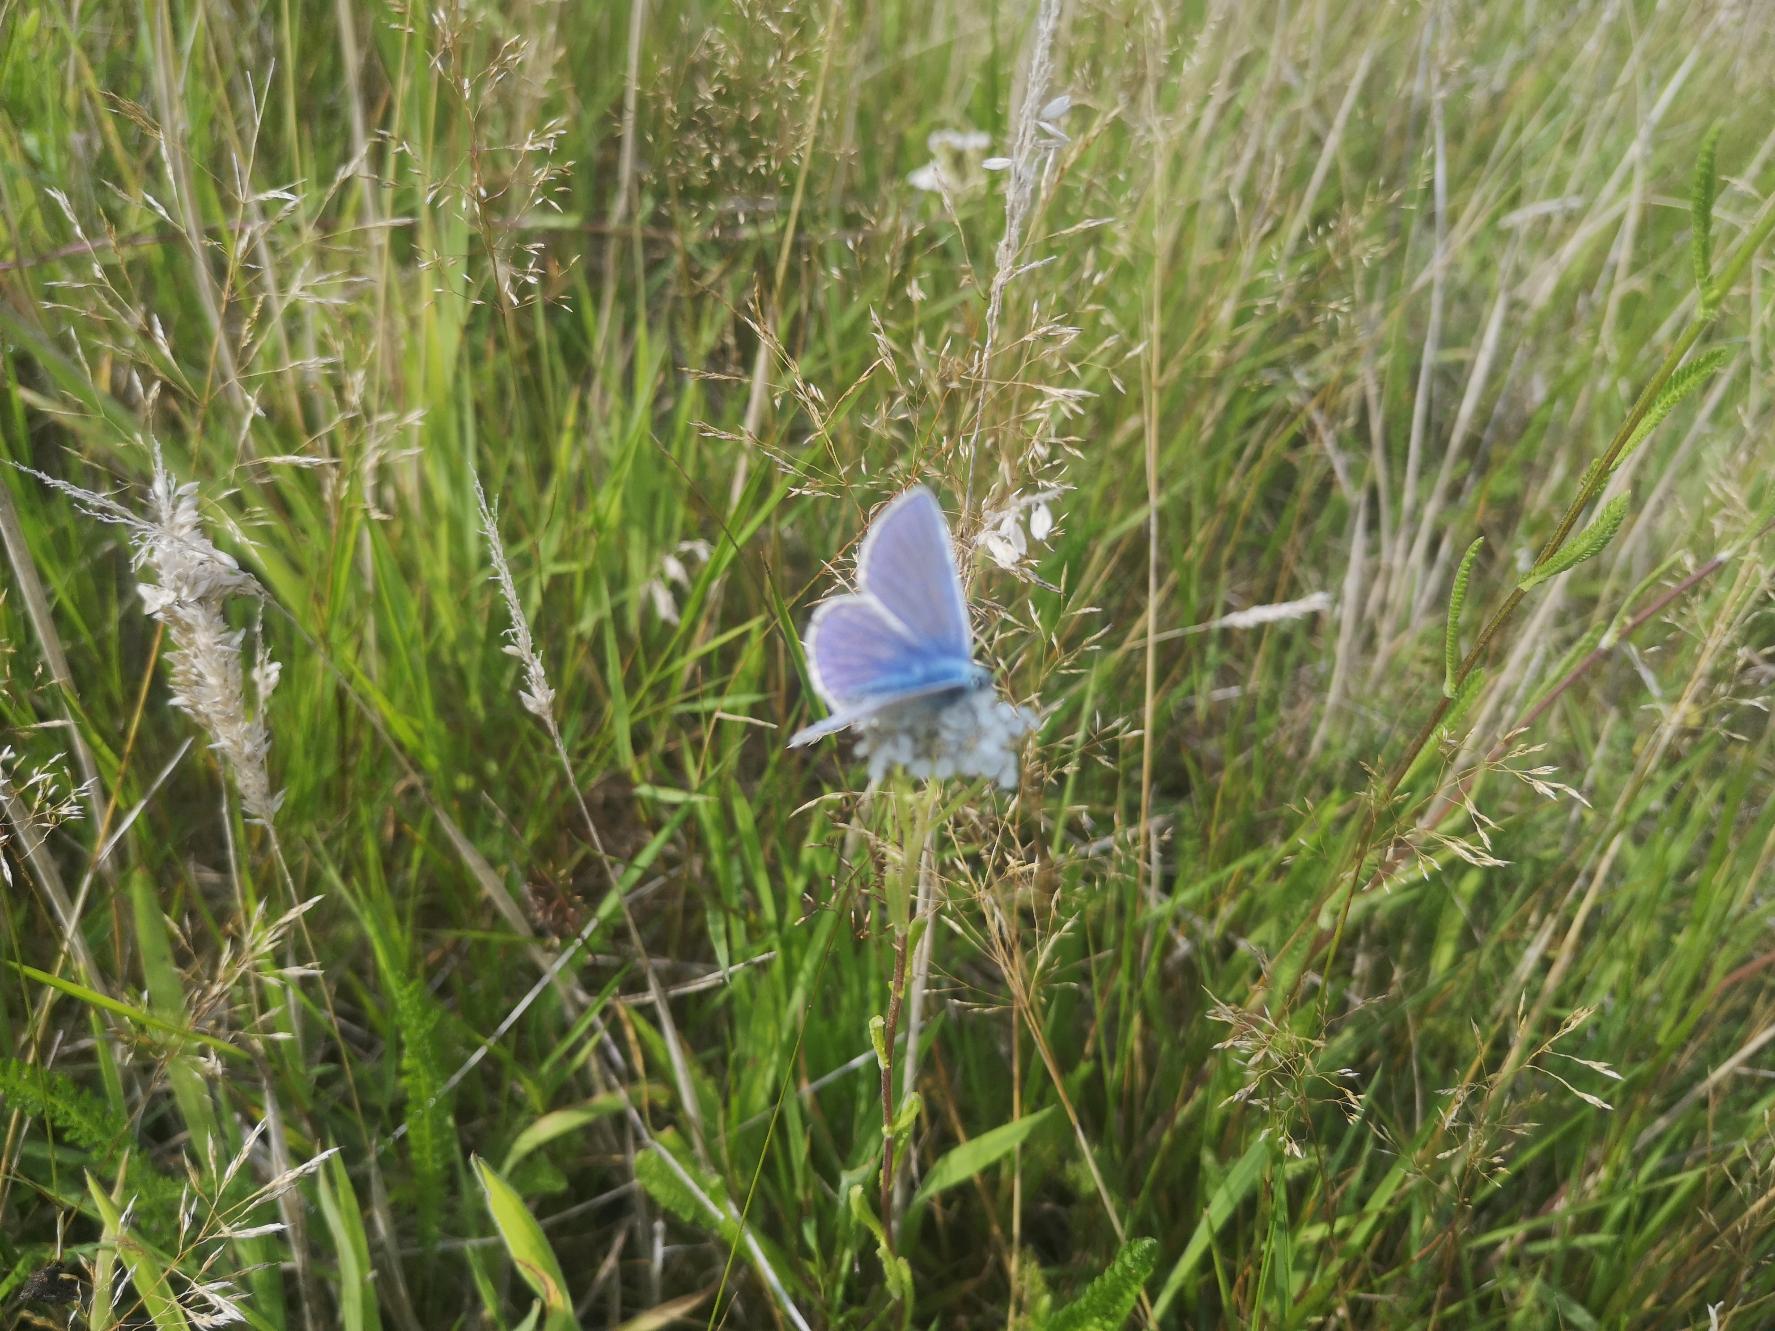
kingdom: Animalia
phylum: Arthropoda
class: Insecta
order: Lepidoptera
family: Lycaenidae
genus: Polyommatus
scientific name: Polyommatus icarus
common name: Almindelig blåfugl
